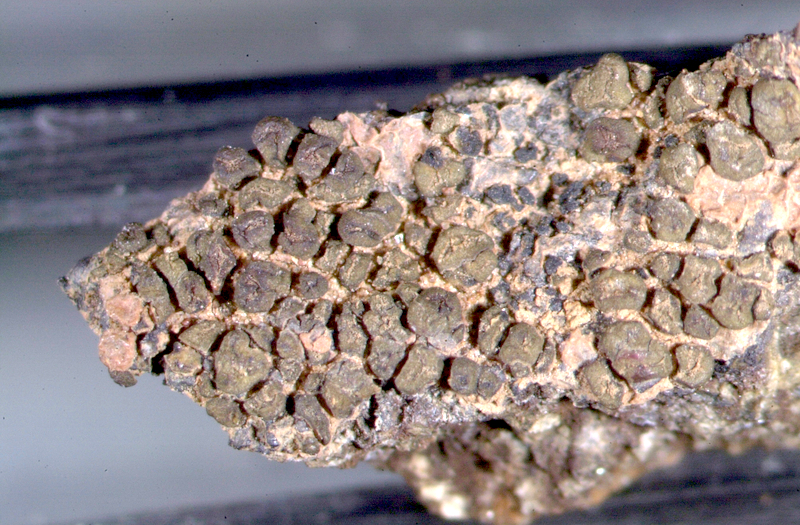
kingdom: Fungi
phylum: Ascomycota
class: Lichinomycetes
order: Lichinales
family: Peltulaceae
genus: Peltula
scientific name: Peltula coriacea
